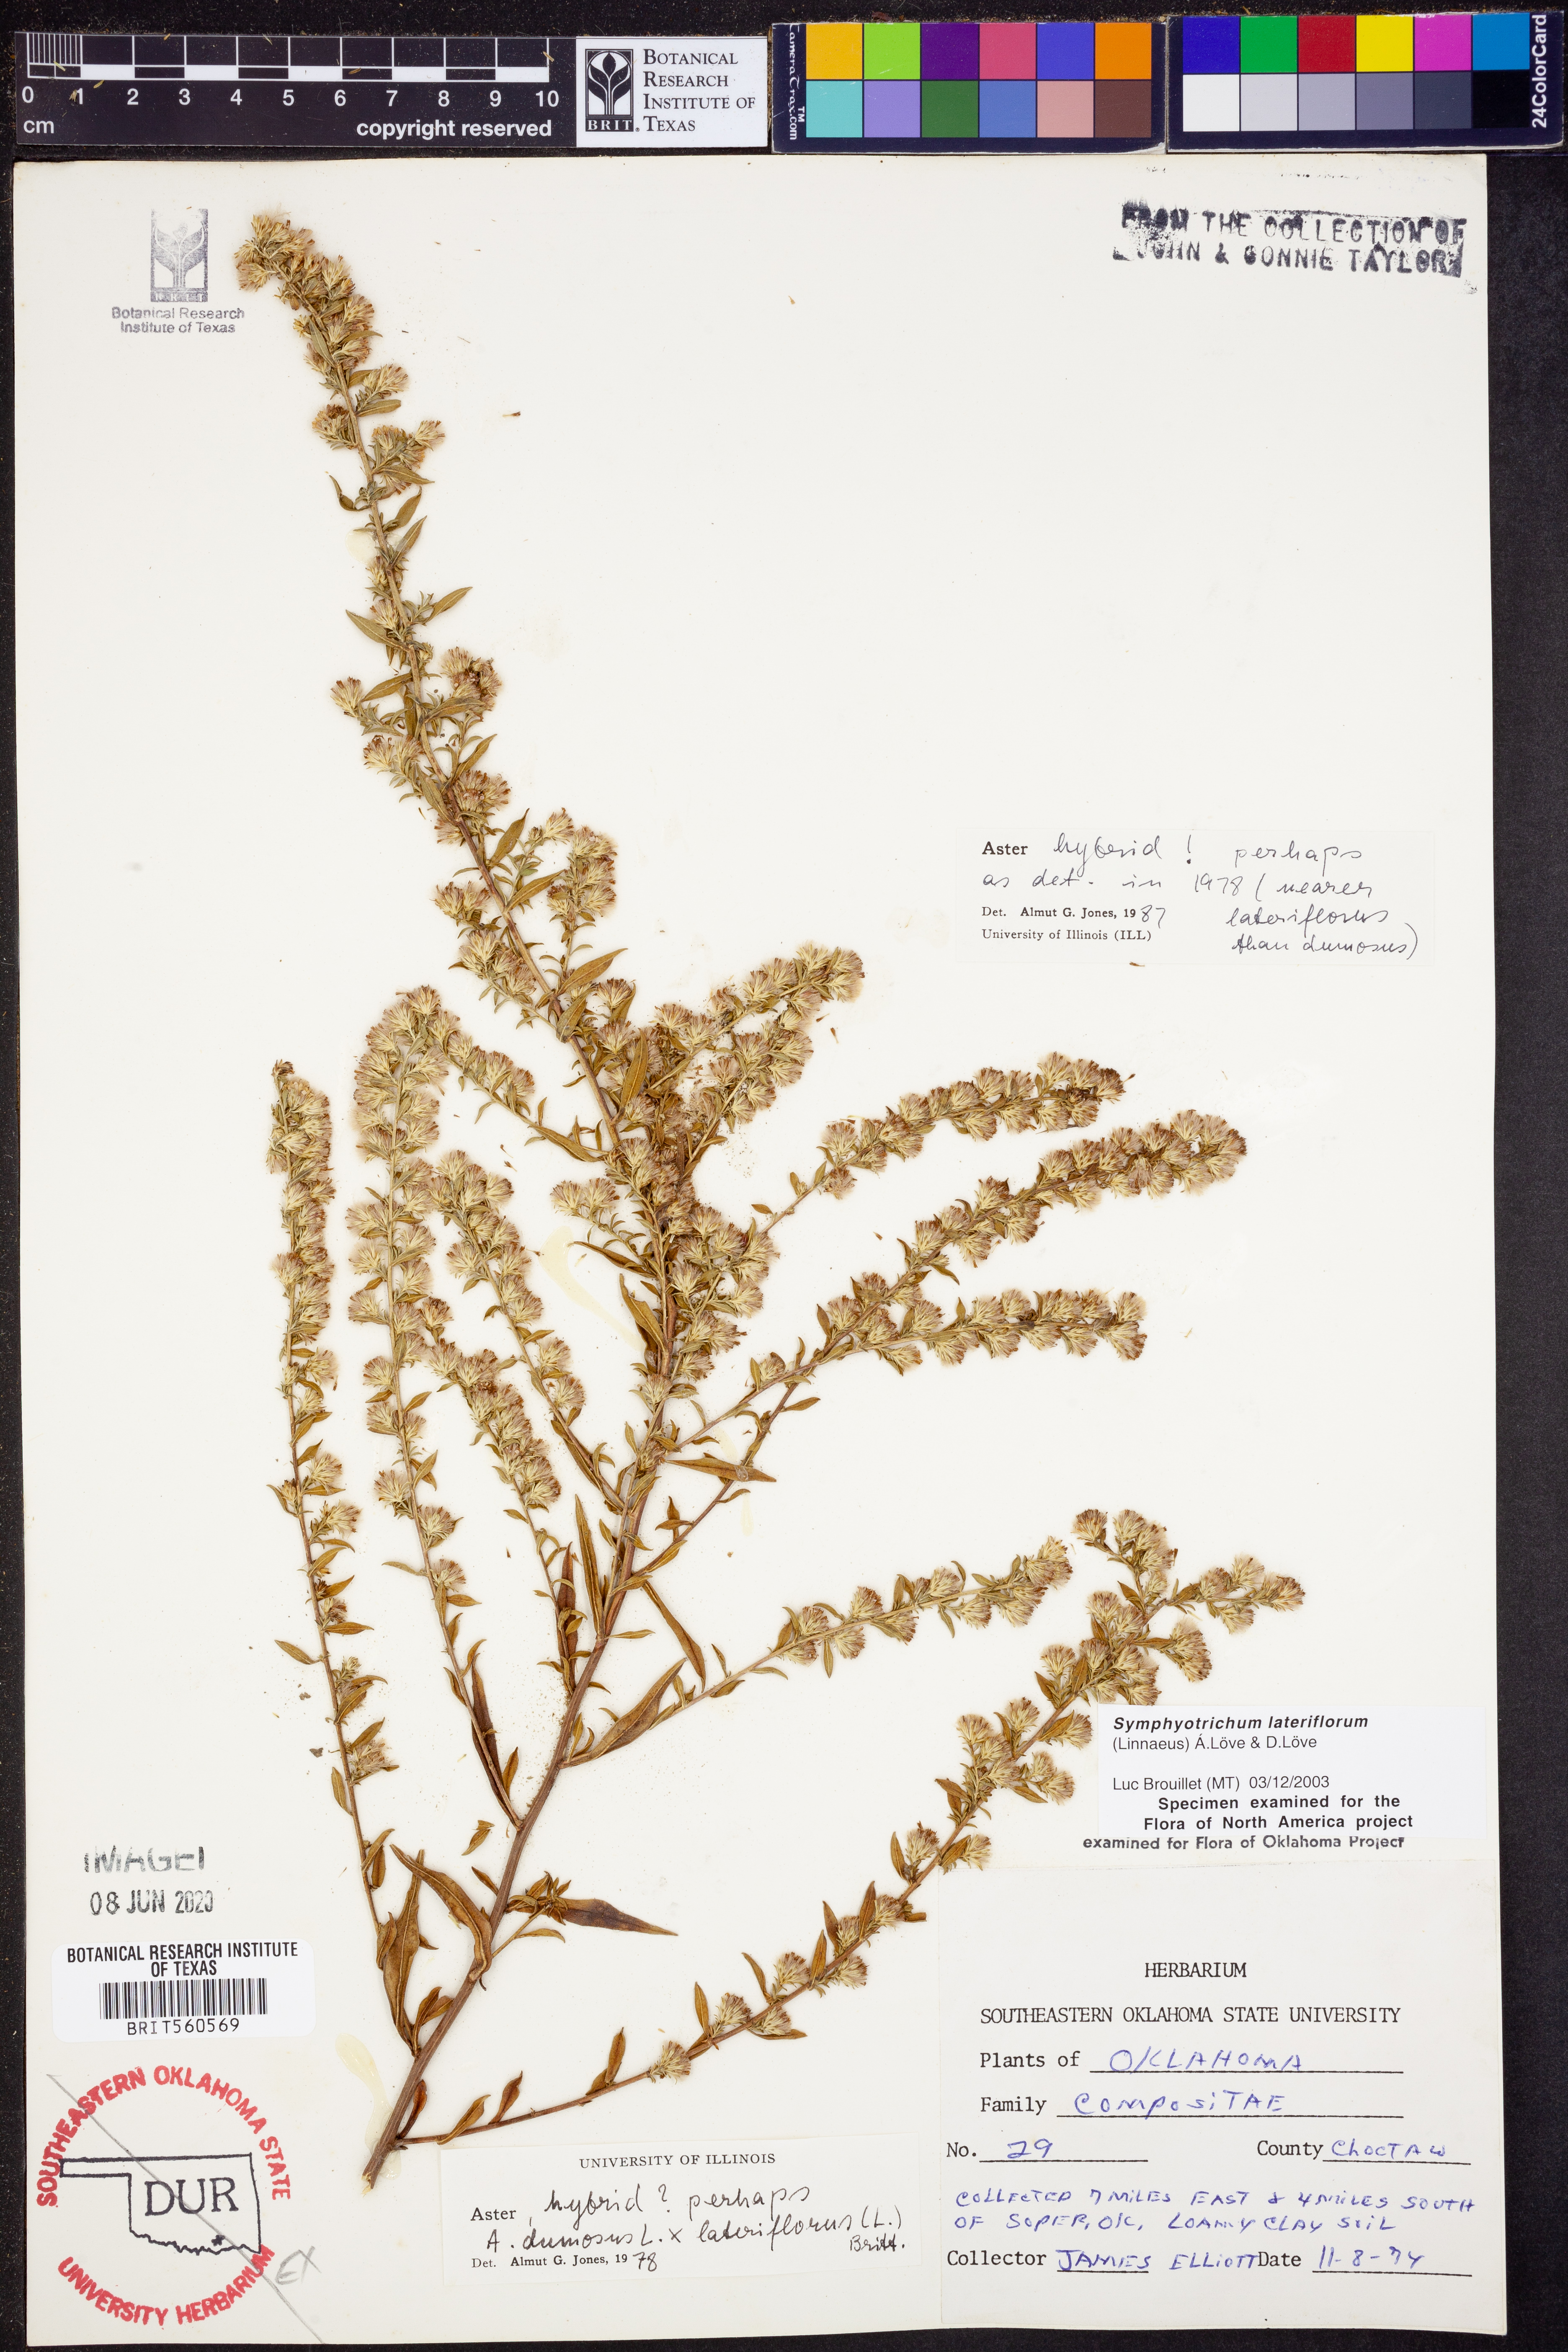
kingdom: Plantae
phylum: Tracheophyta
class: Magnoliopsida
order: Asterales
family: Asteraceae
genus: Symphyotrichum
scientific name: Symphyotrichum lateriflorum
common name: Calico aster
